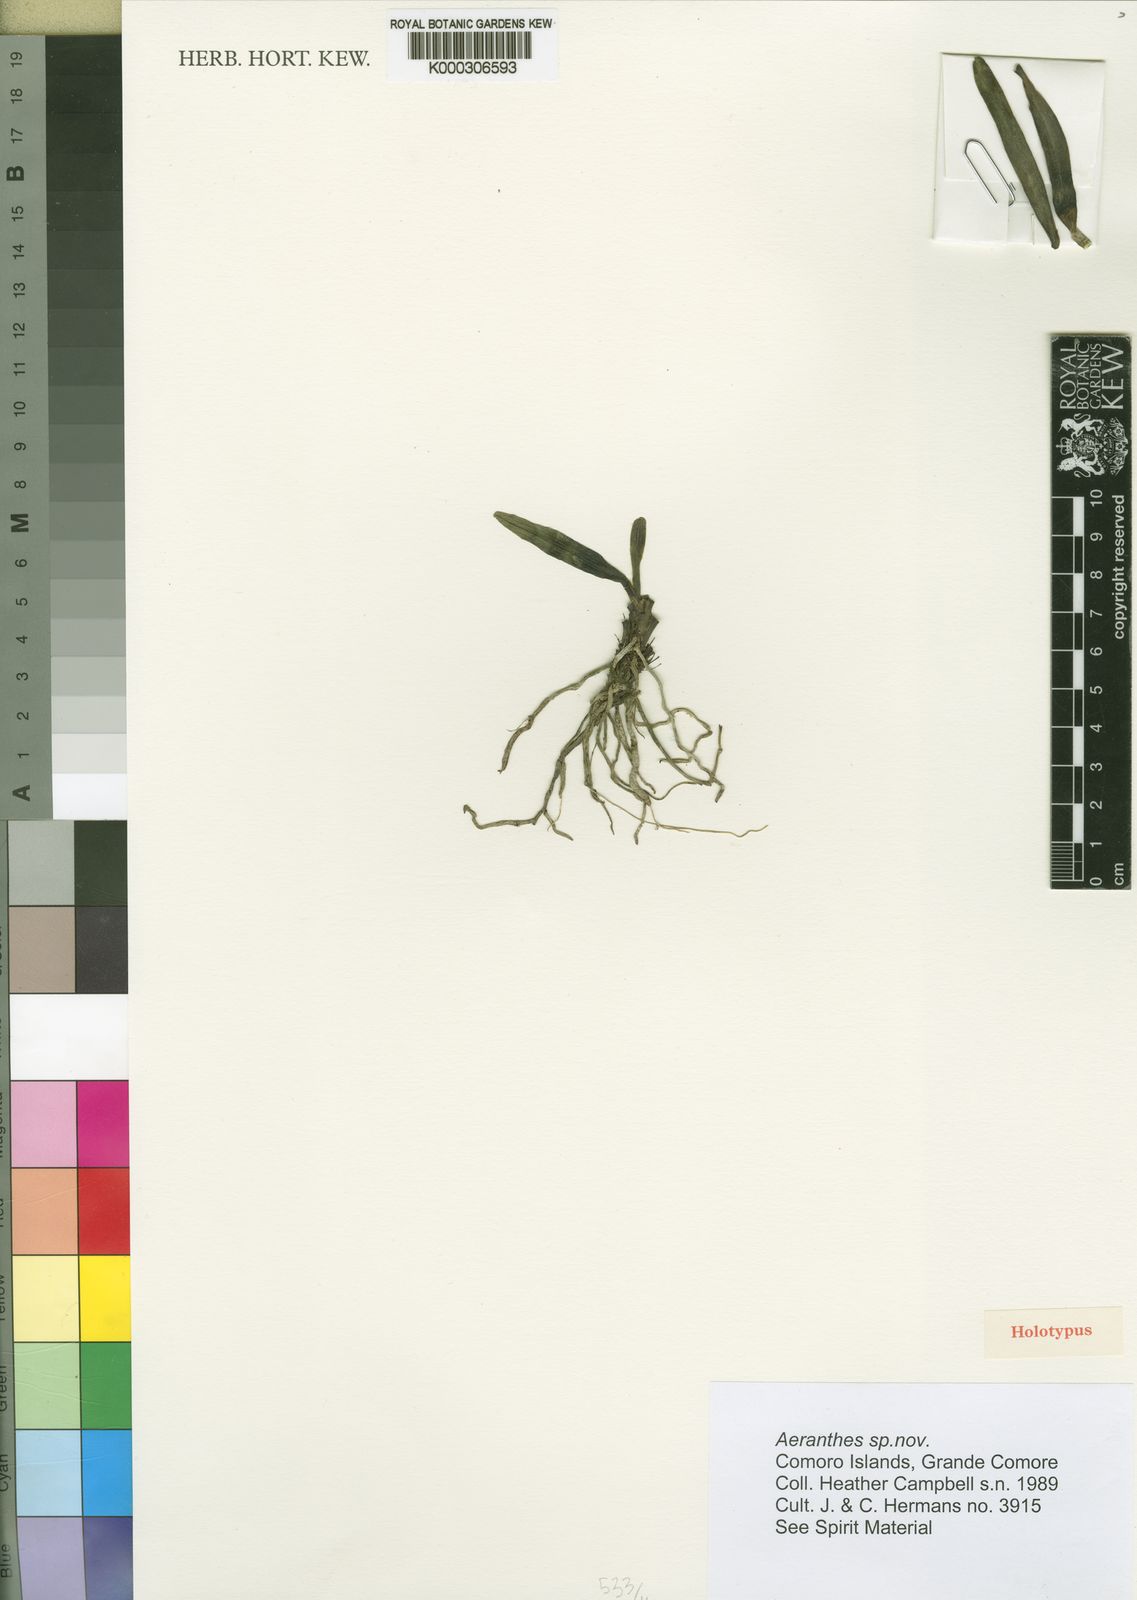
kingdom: Plantae
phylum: Tracheophyta
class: Liliopsida
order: Asparagales
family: Orchidaceae
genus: Aeranthes
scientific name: Aeranthes campbelliae
